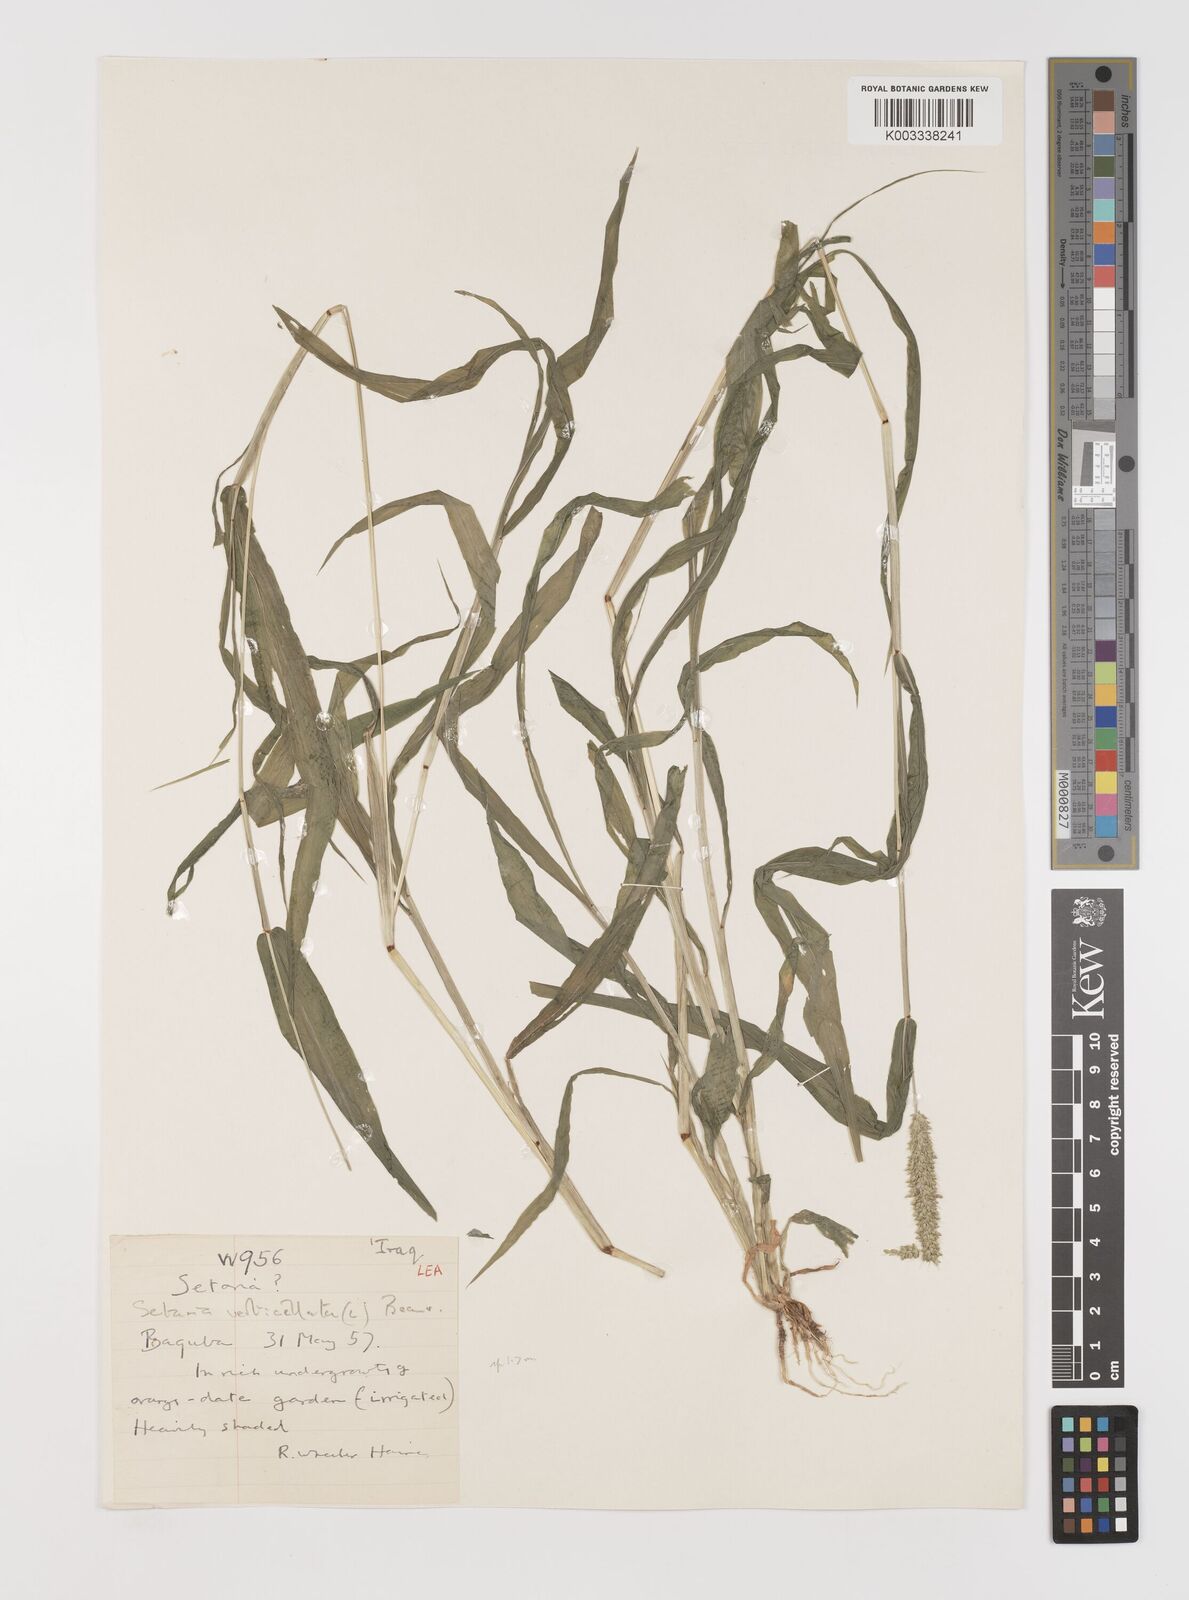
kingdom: Plantae
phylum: Tracheophyta
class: Liliopsida
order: Poales
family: Poaceae
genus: Setaria
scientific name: Setaria verticillata
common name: Hooked bristlegrass
